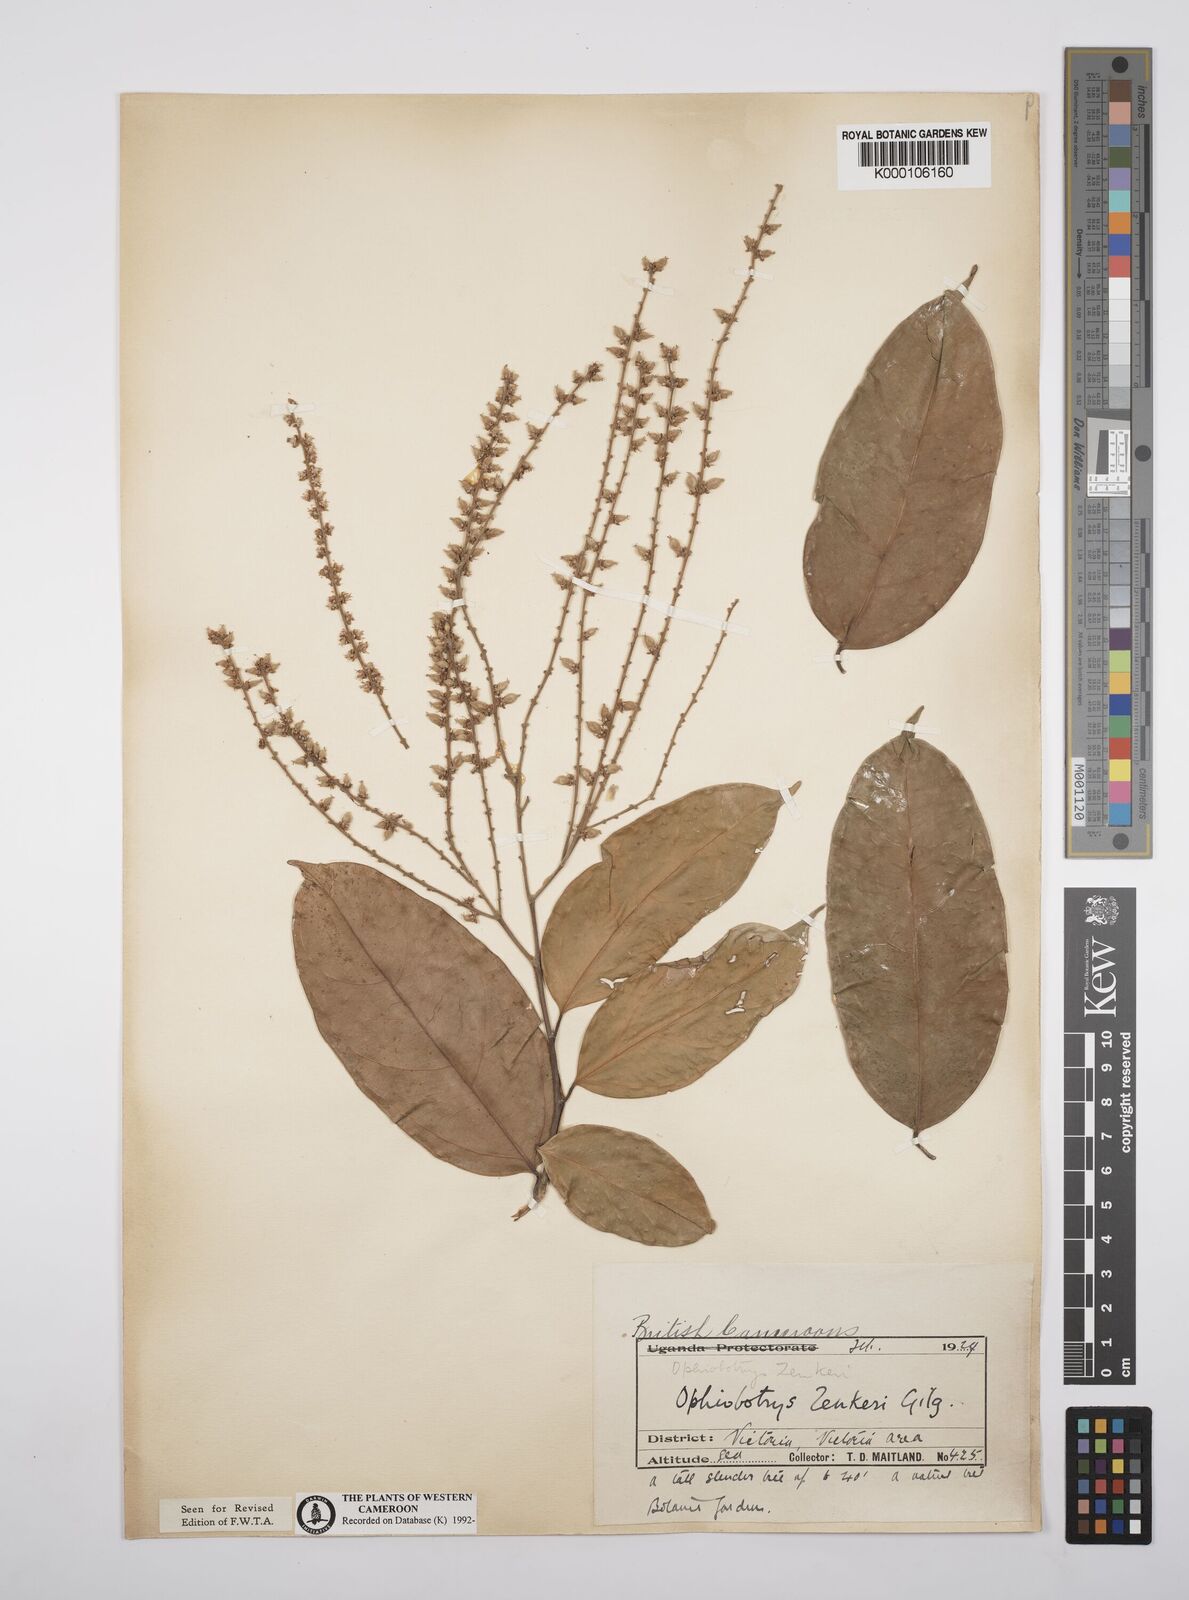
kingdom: Plantae
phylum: Tracheophyta
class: Magnoliopsida
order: Malpighiales
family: Salicaceae
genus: Ophiobotrys
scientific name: Ophiobotrys zenkeri
